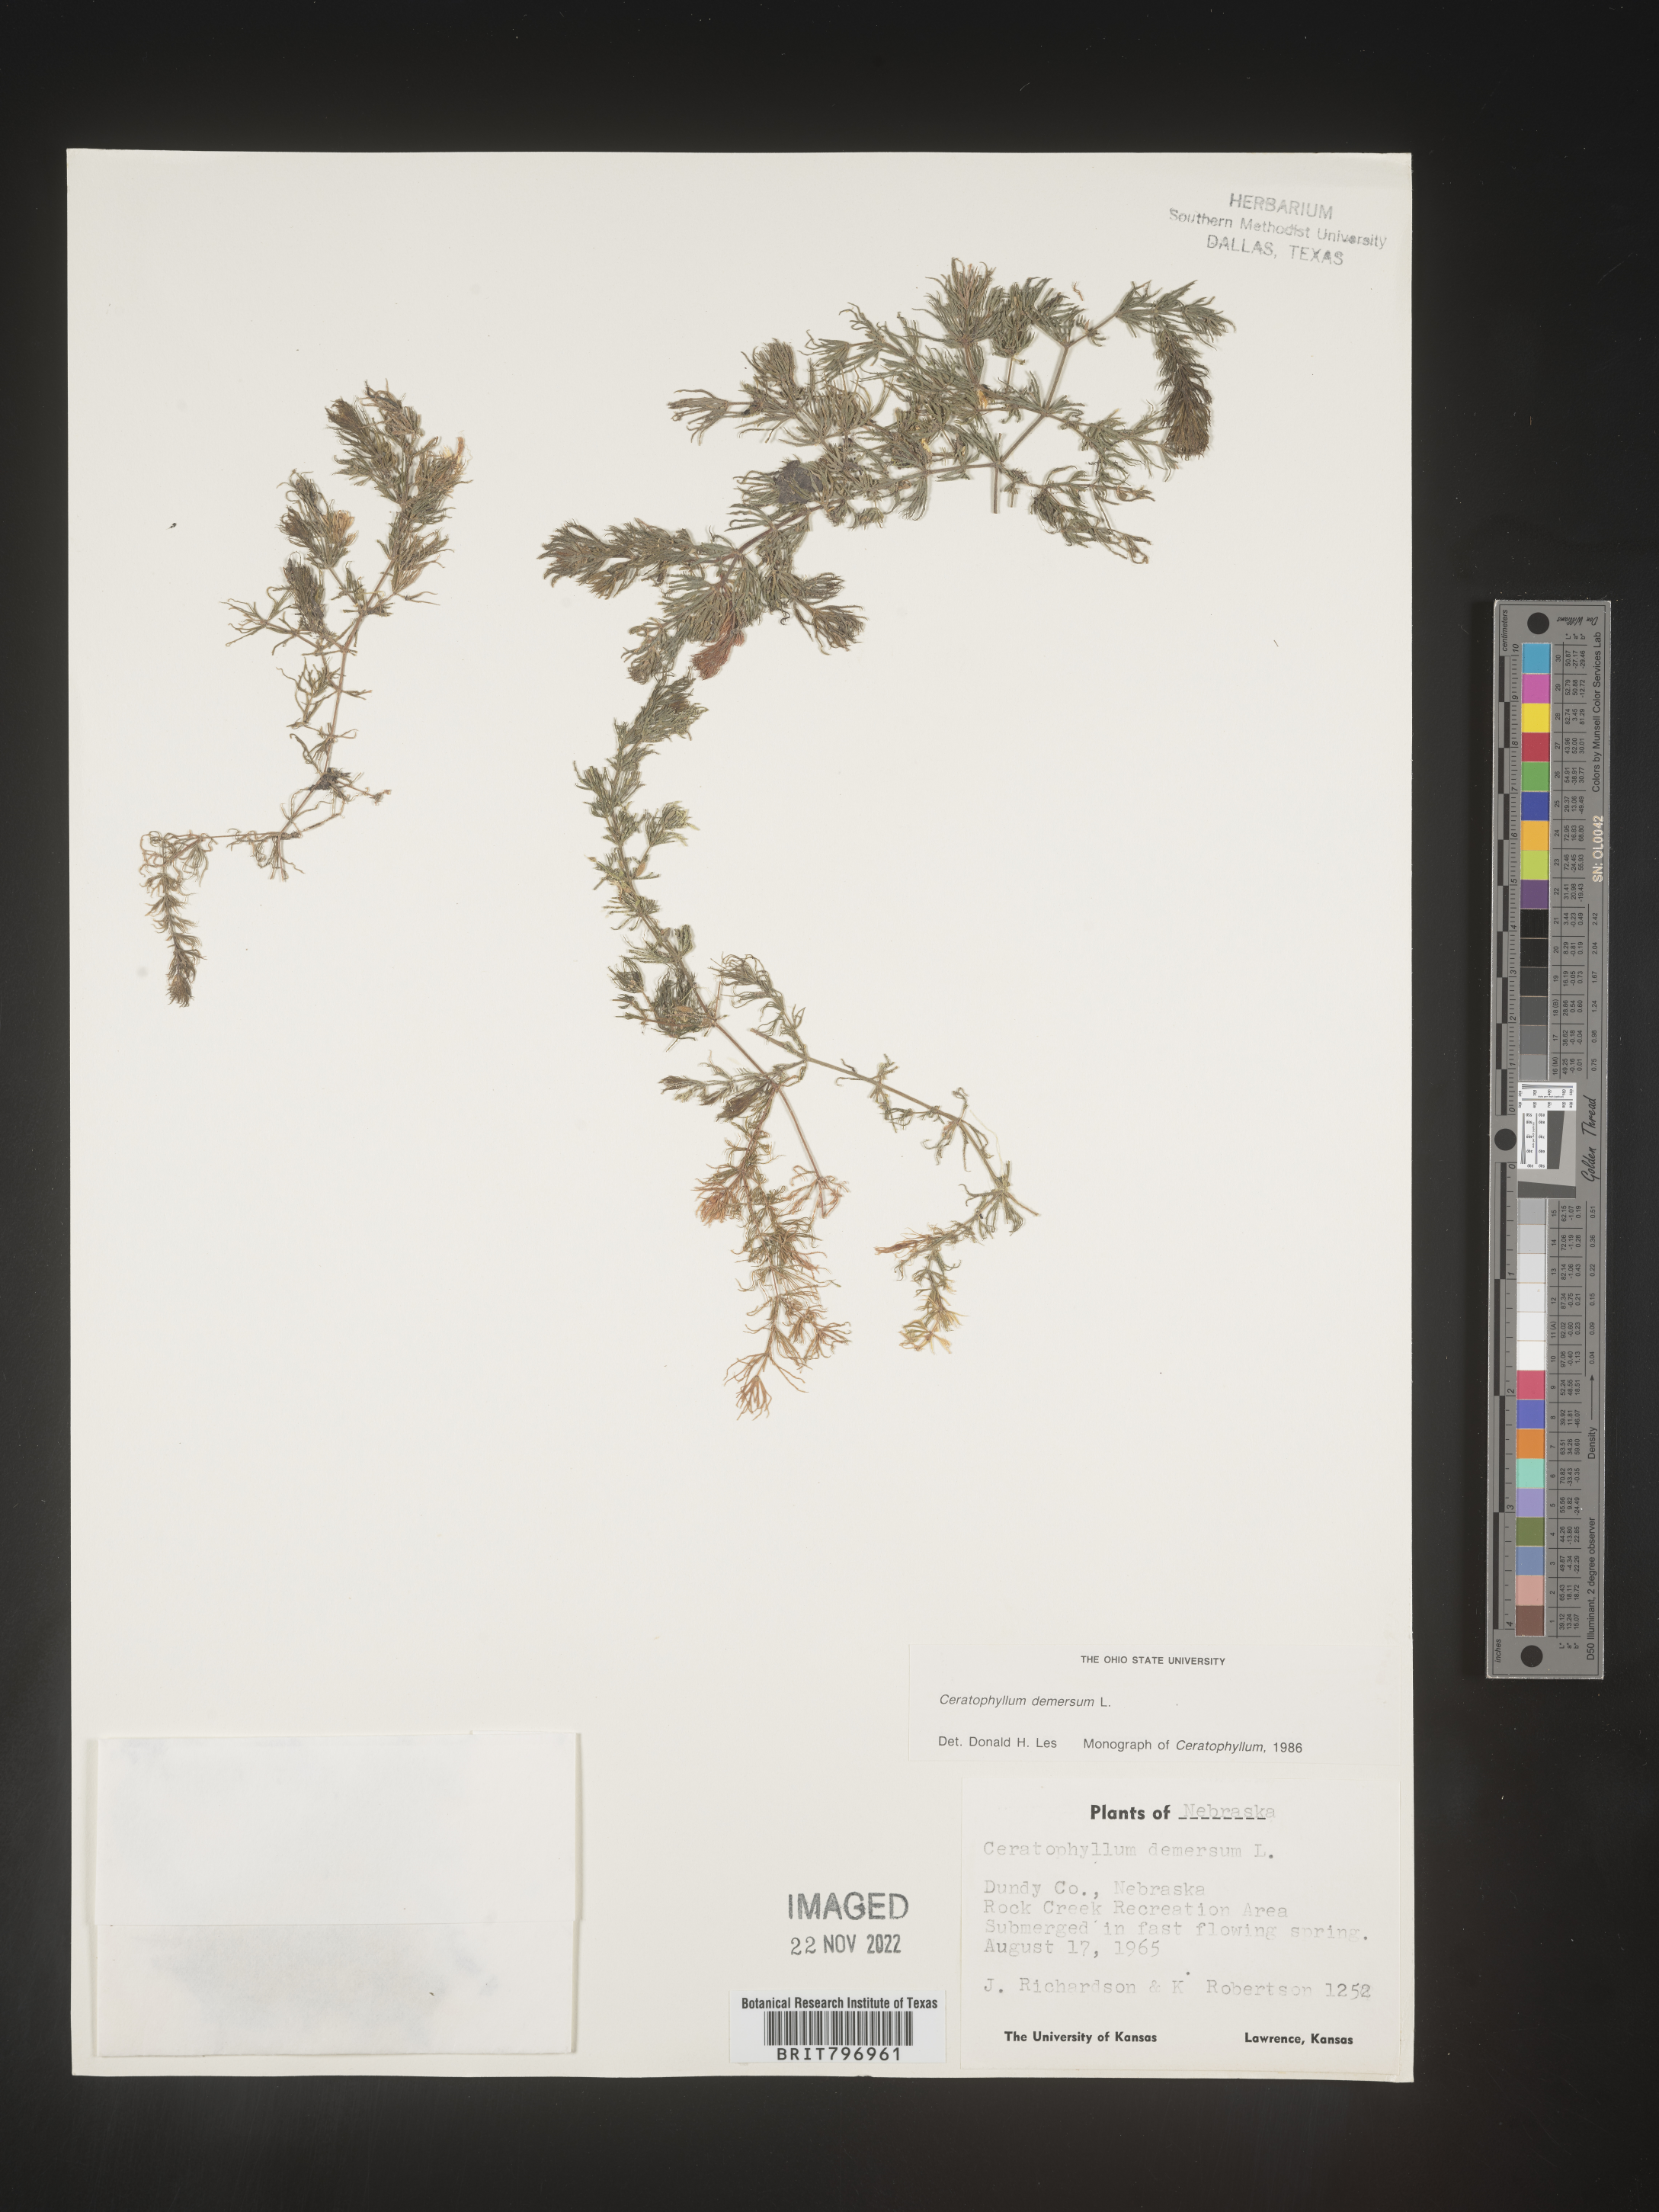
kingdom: Plantae
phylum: Tracheophyta
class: Magnoliopsida
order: Ceratophyllales
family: Ceratophyllaceae
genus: Ceratophyllum
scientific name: Ceratophyllum demersum
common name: Rigid hornwort
